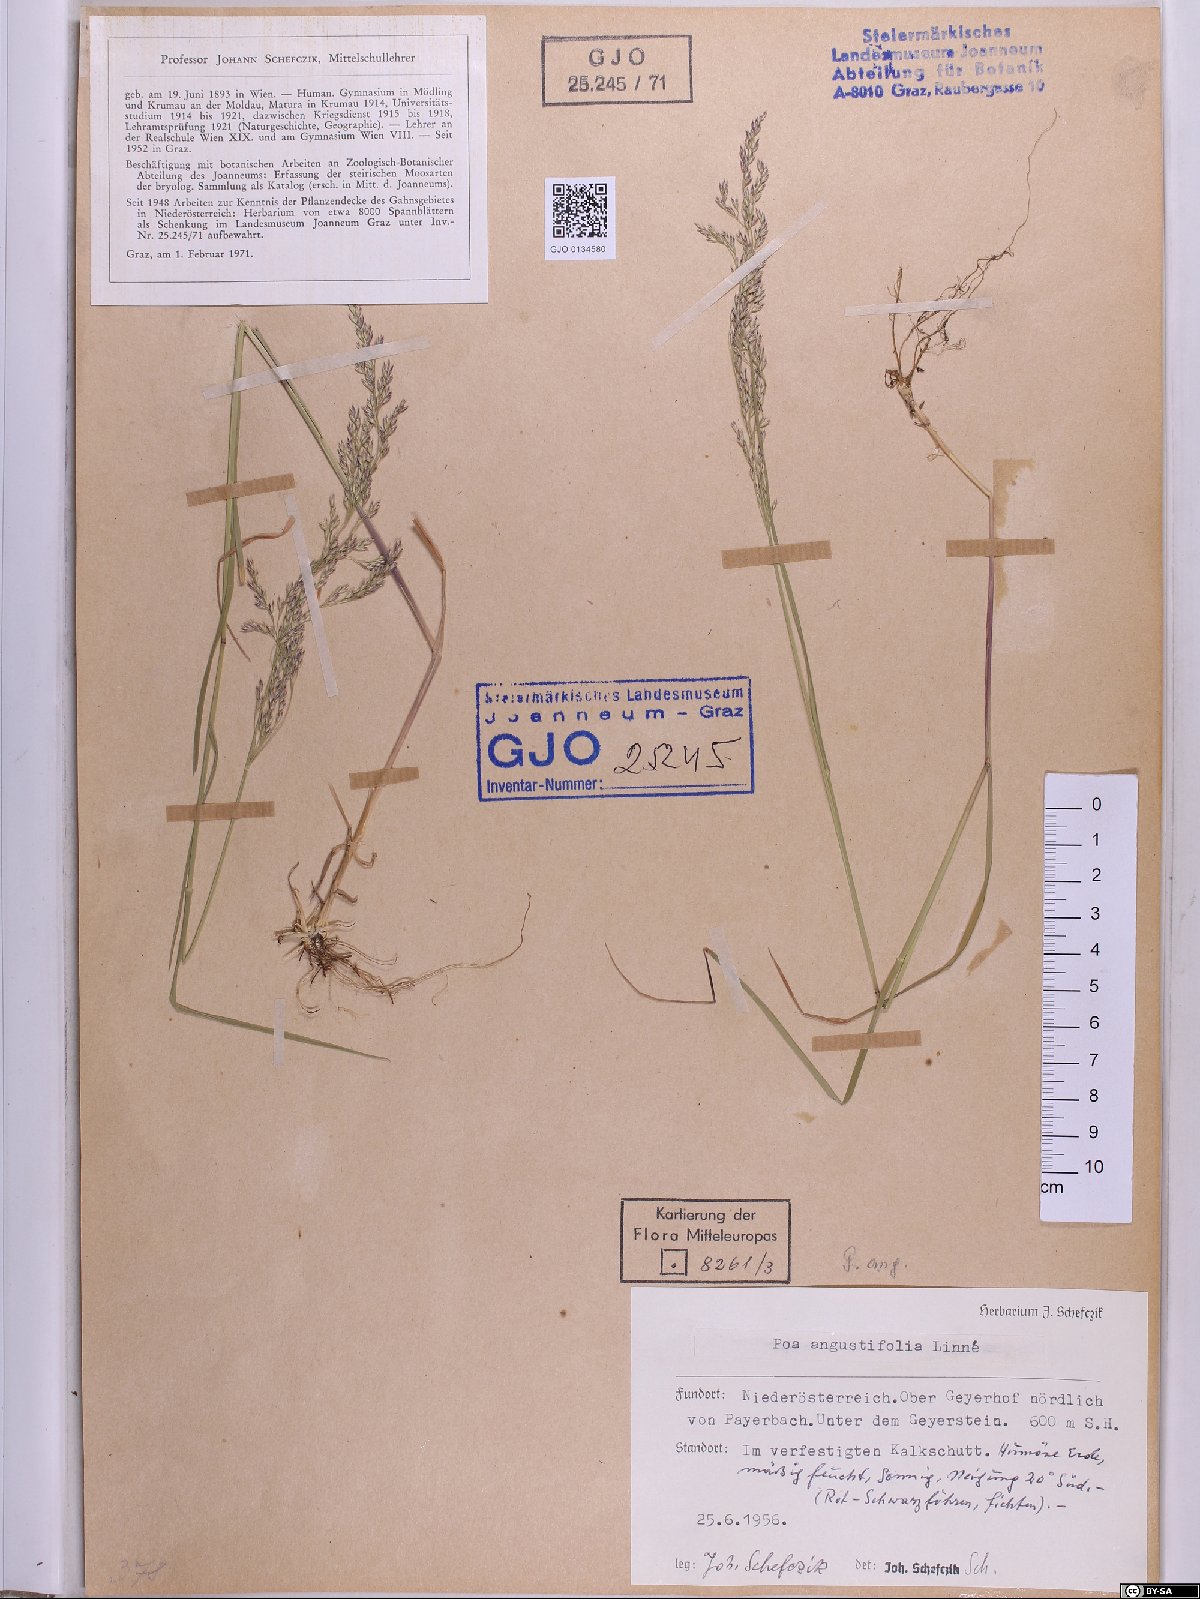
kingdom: Plantae
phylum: Tracheophyta
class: Liliopsida
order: Poales
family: Poaceae
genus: Poa
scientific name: Poa angustifolia
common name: Narrow-leaved meadow-grass
